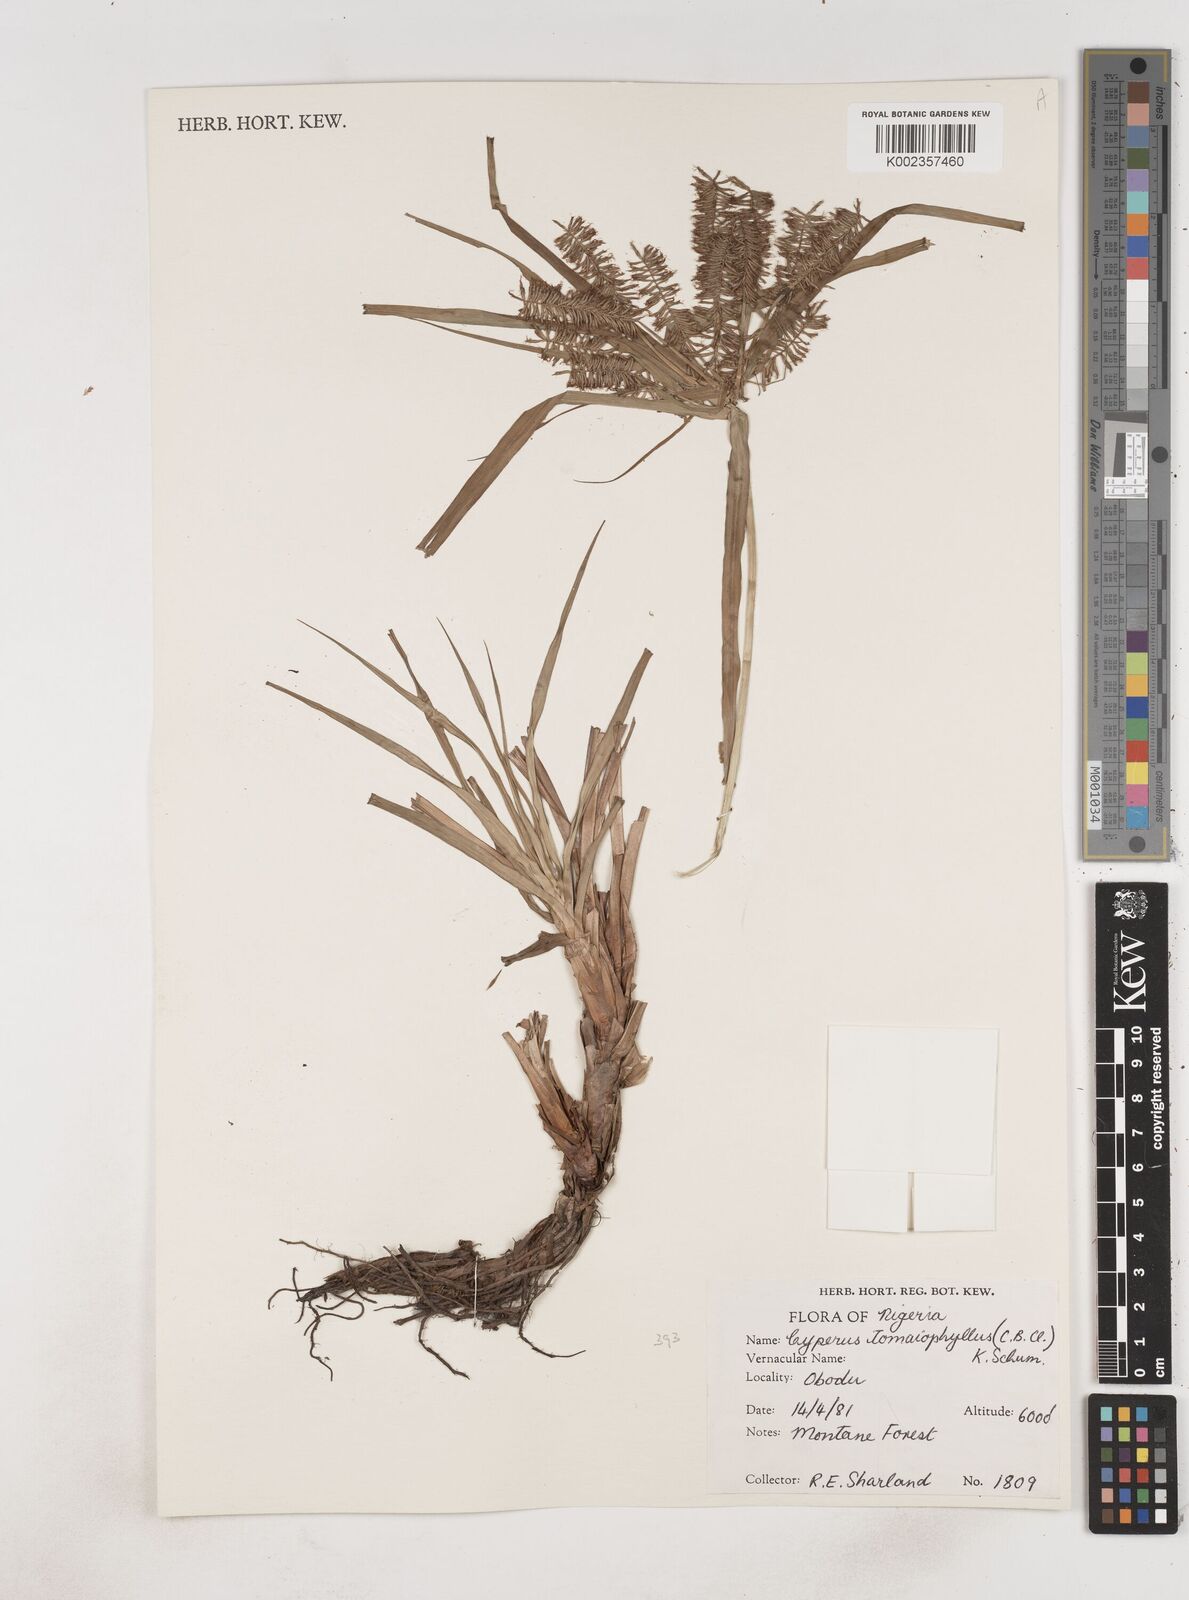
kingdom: Plantae
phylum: Tracheophyta
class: Liliopsida
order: Poales
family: Cyperaceae
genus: Cyperus
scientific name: Cyperus tomaiophyllus
